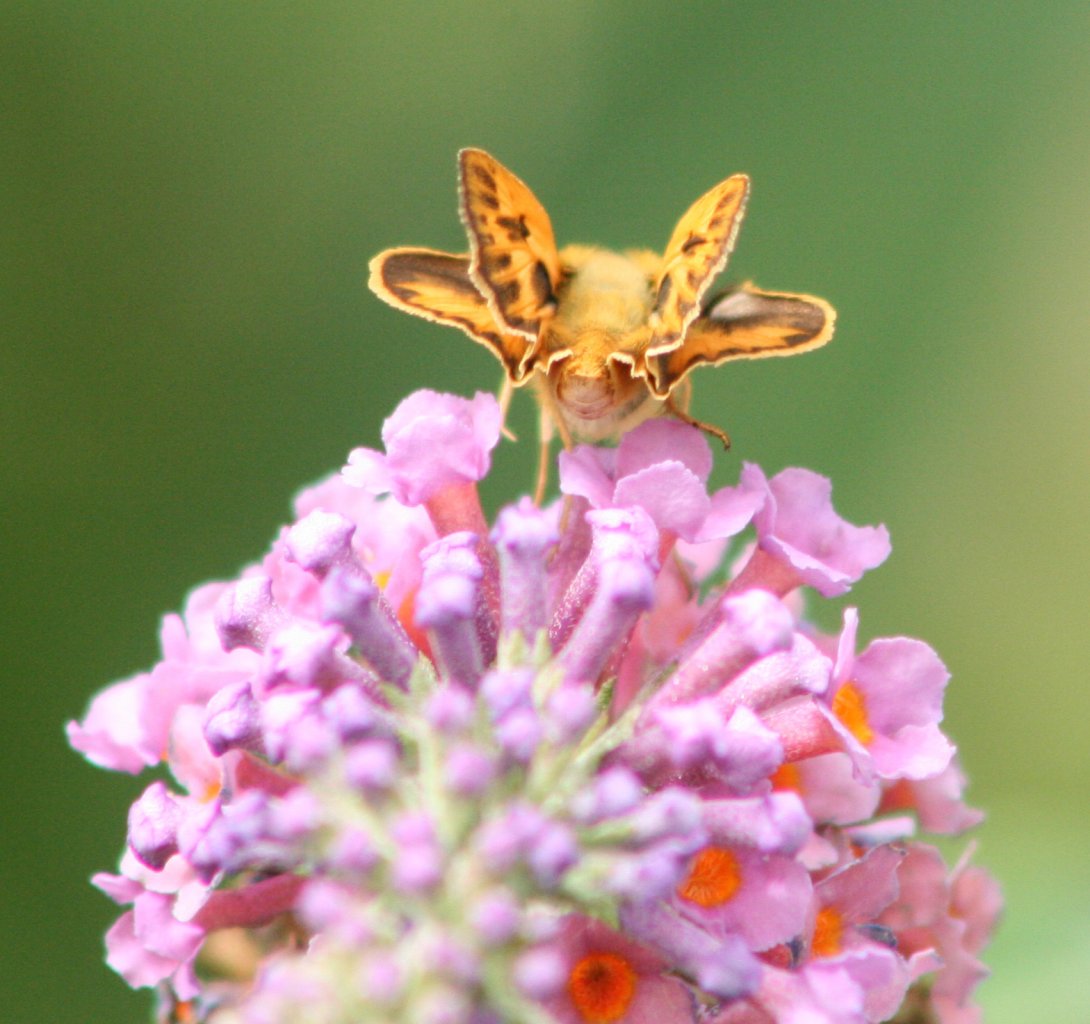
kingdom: Animalia
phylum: Arthropoda
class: Insecta
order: Lepidoptera
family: Hesperiidae
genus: Hylephila
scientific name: Hylephila phyleus
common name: Fiery Skipper
